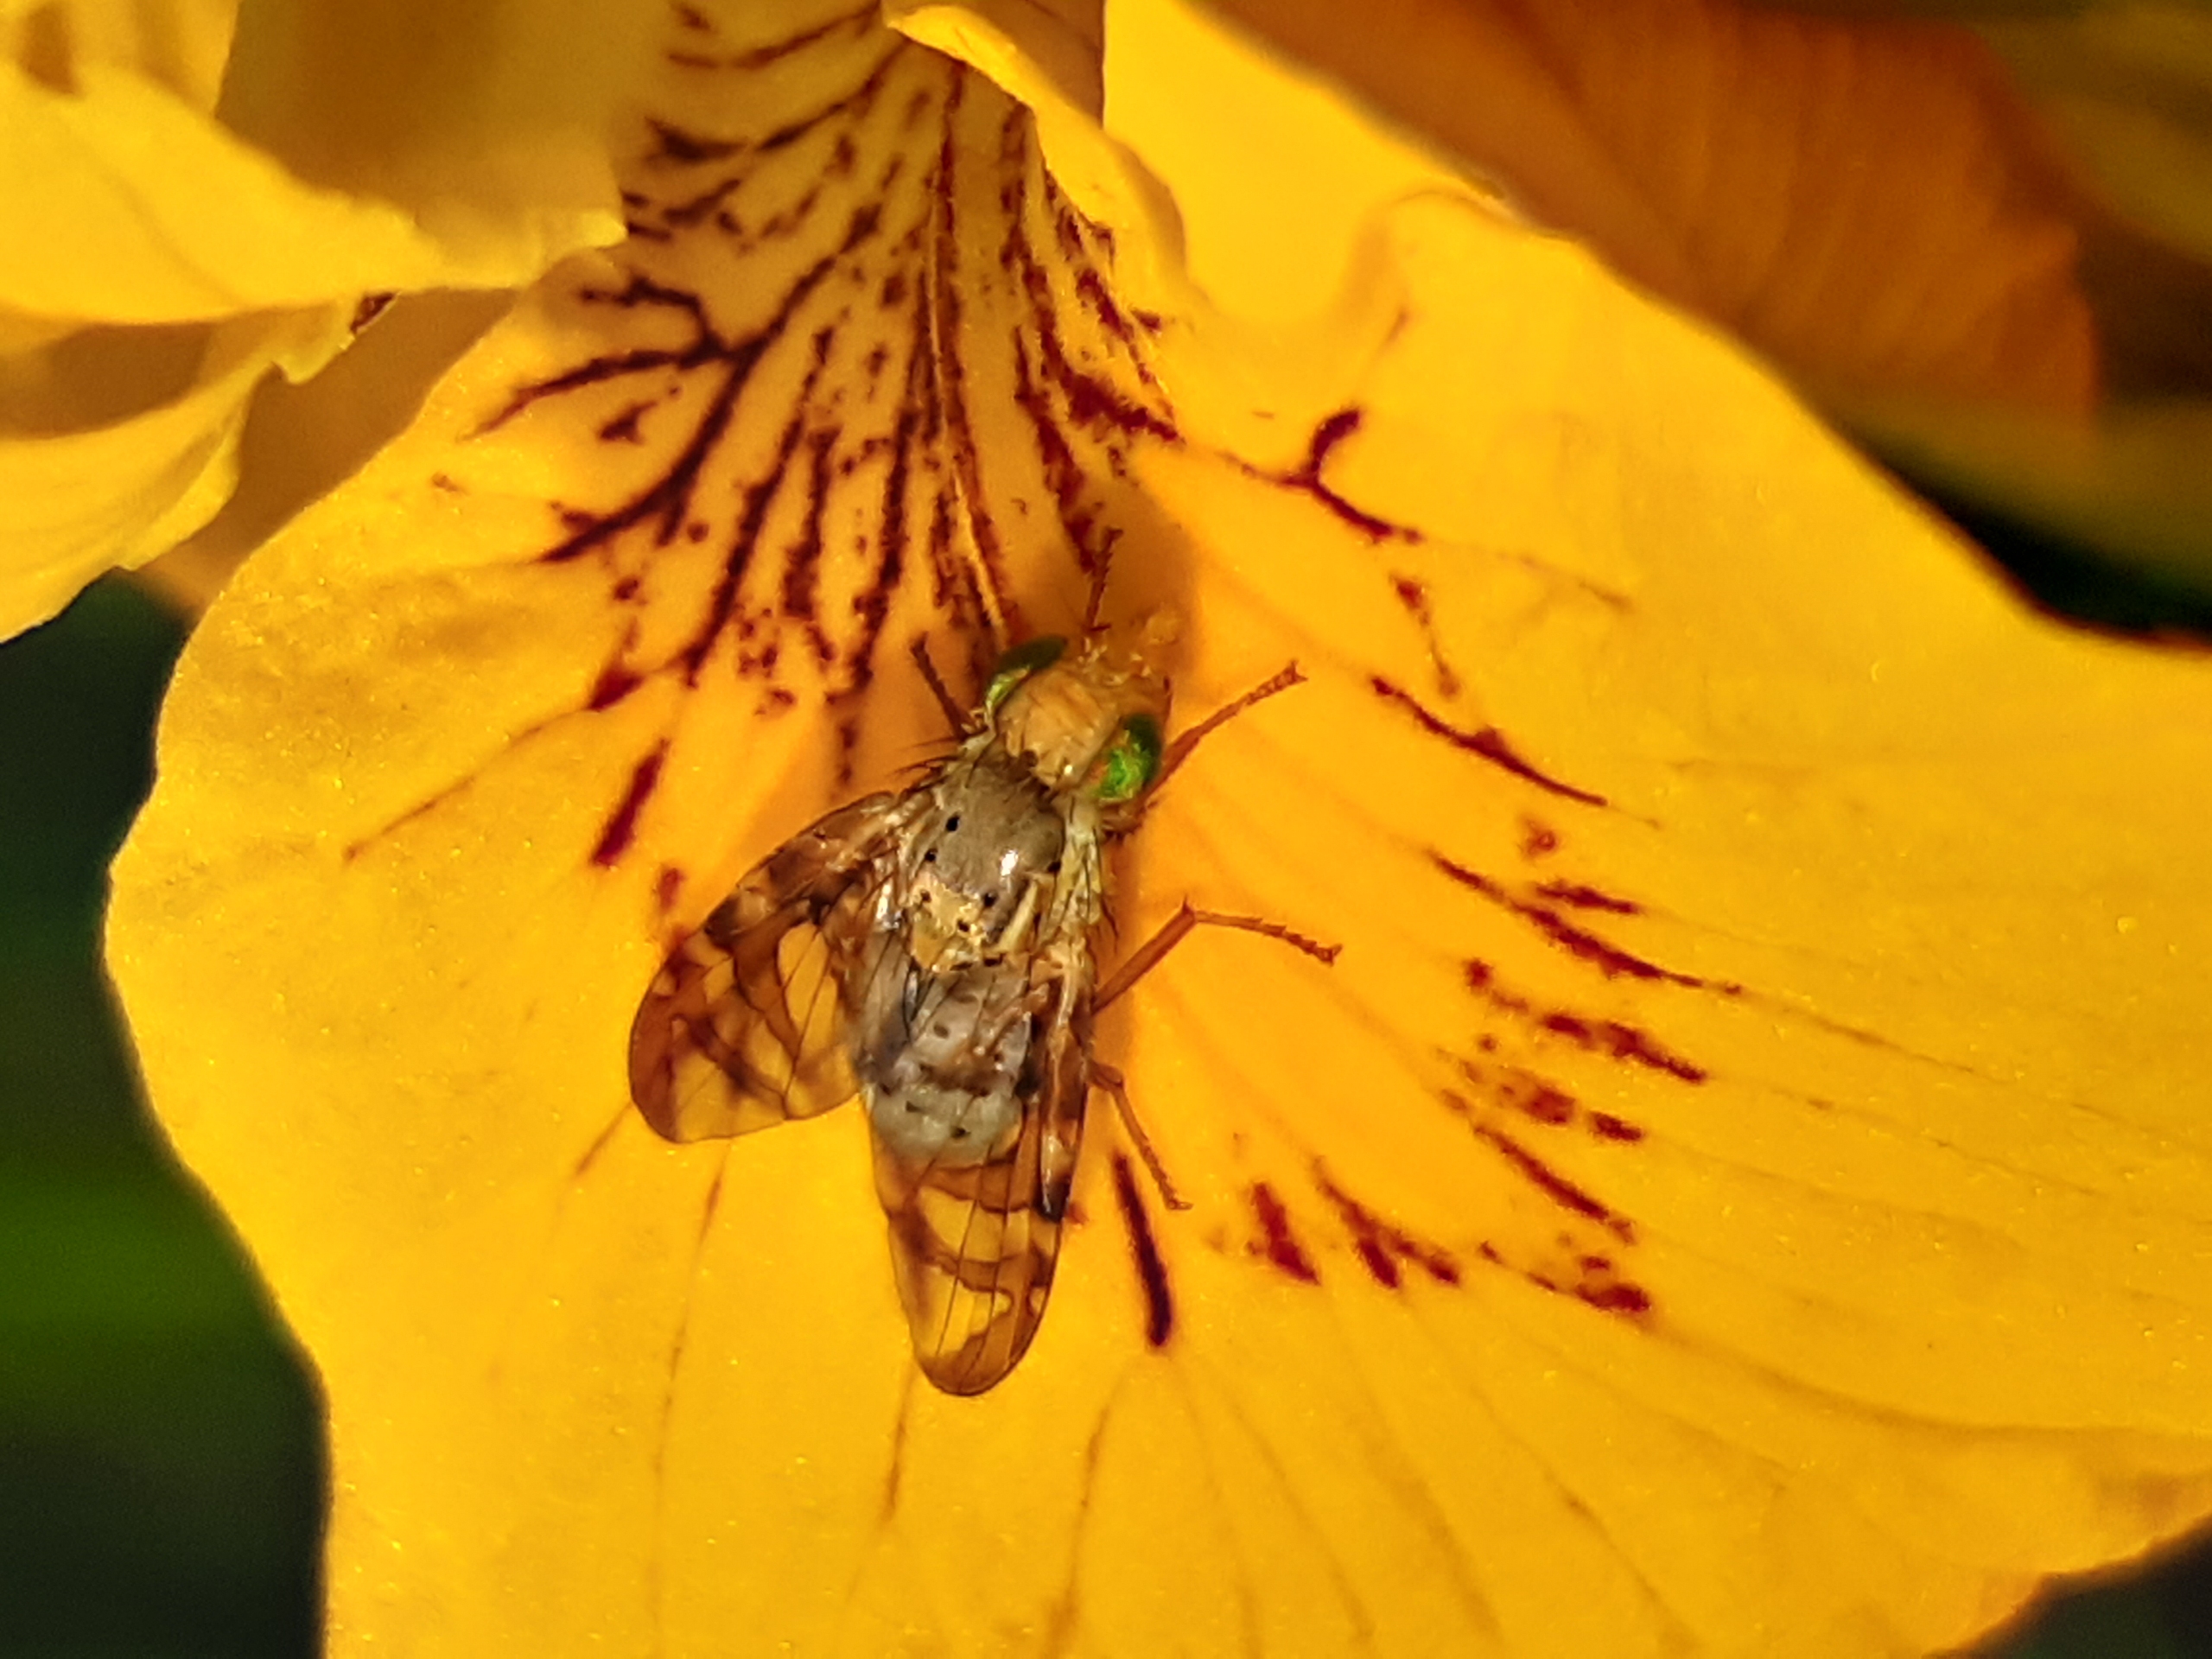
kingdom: Animalia
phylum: Arthropoda
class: Insecta
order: Diptera
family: Tephritidae
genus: Orellia
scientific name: Orellia falcata
